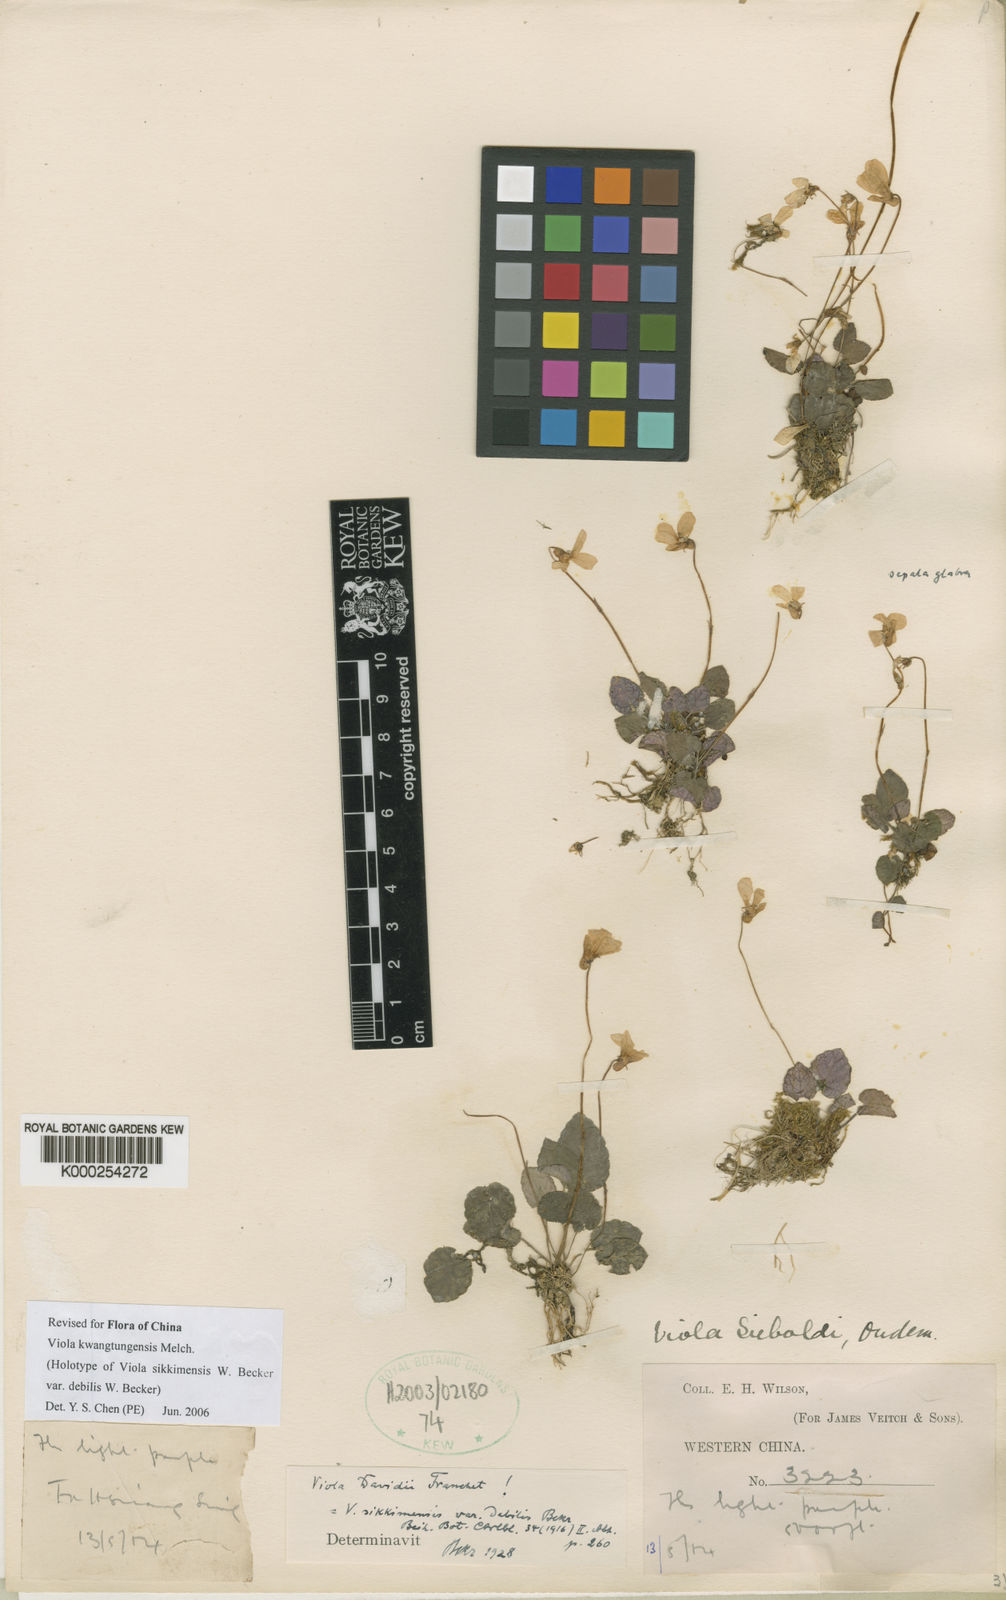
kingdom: Plantae
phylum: Tracheophyta
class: Magnoliopsida
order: Malpighiales
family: Violaceae
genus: Viola
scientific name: Viola sikkimensis
